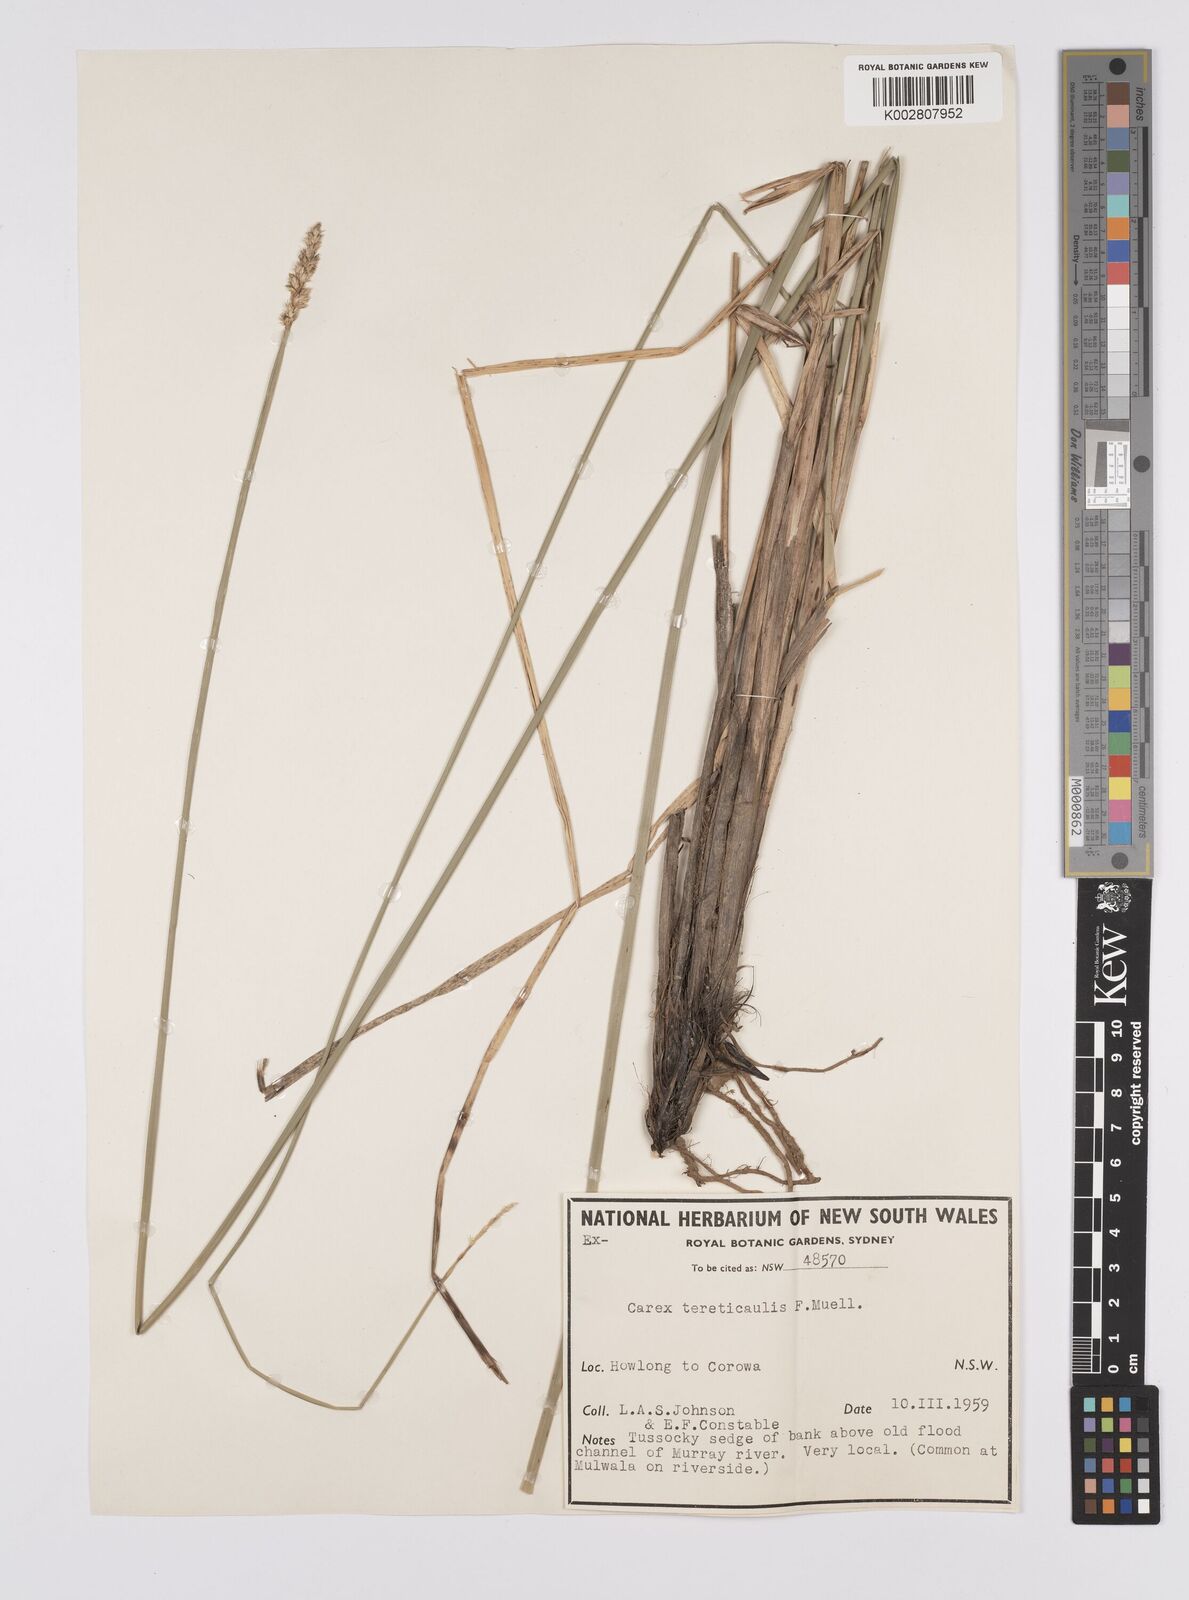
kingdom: Plantae
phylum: Tracheophyta
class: Liliopsida
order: Poales
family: Cyperaceae
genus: Carex
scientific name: Carex tereticaulis
